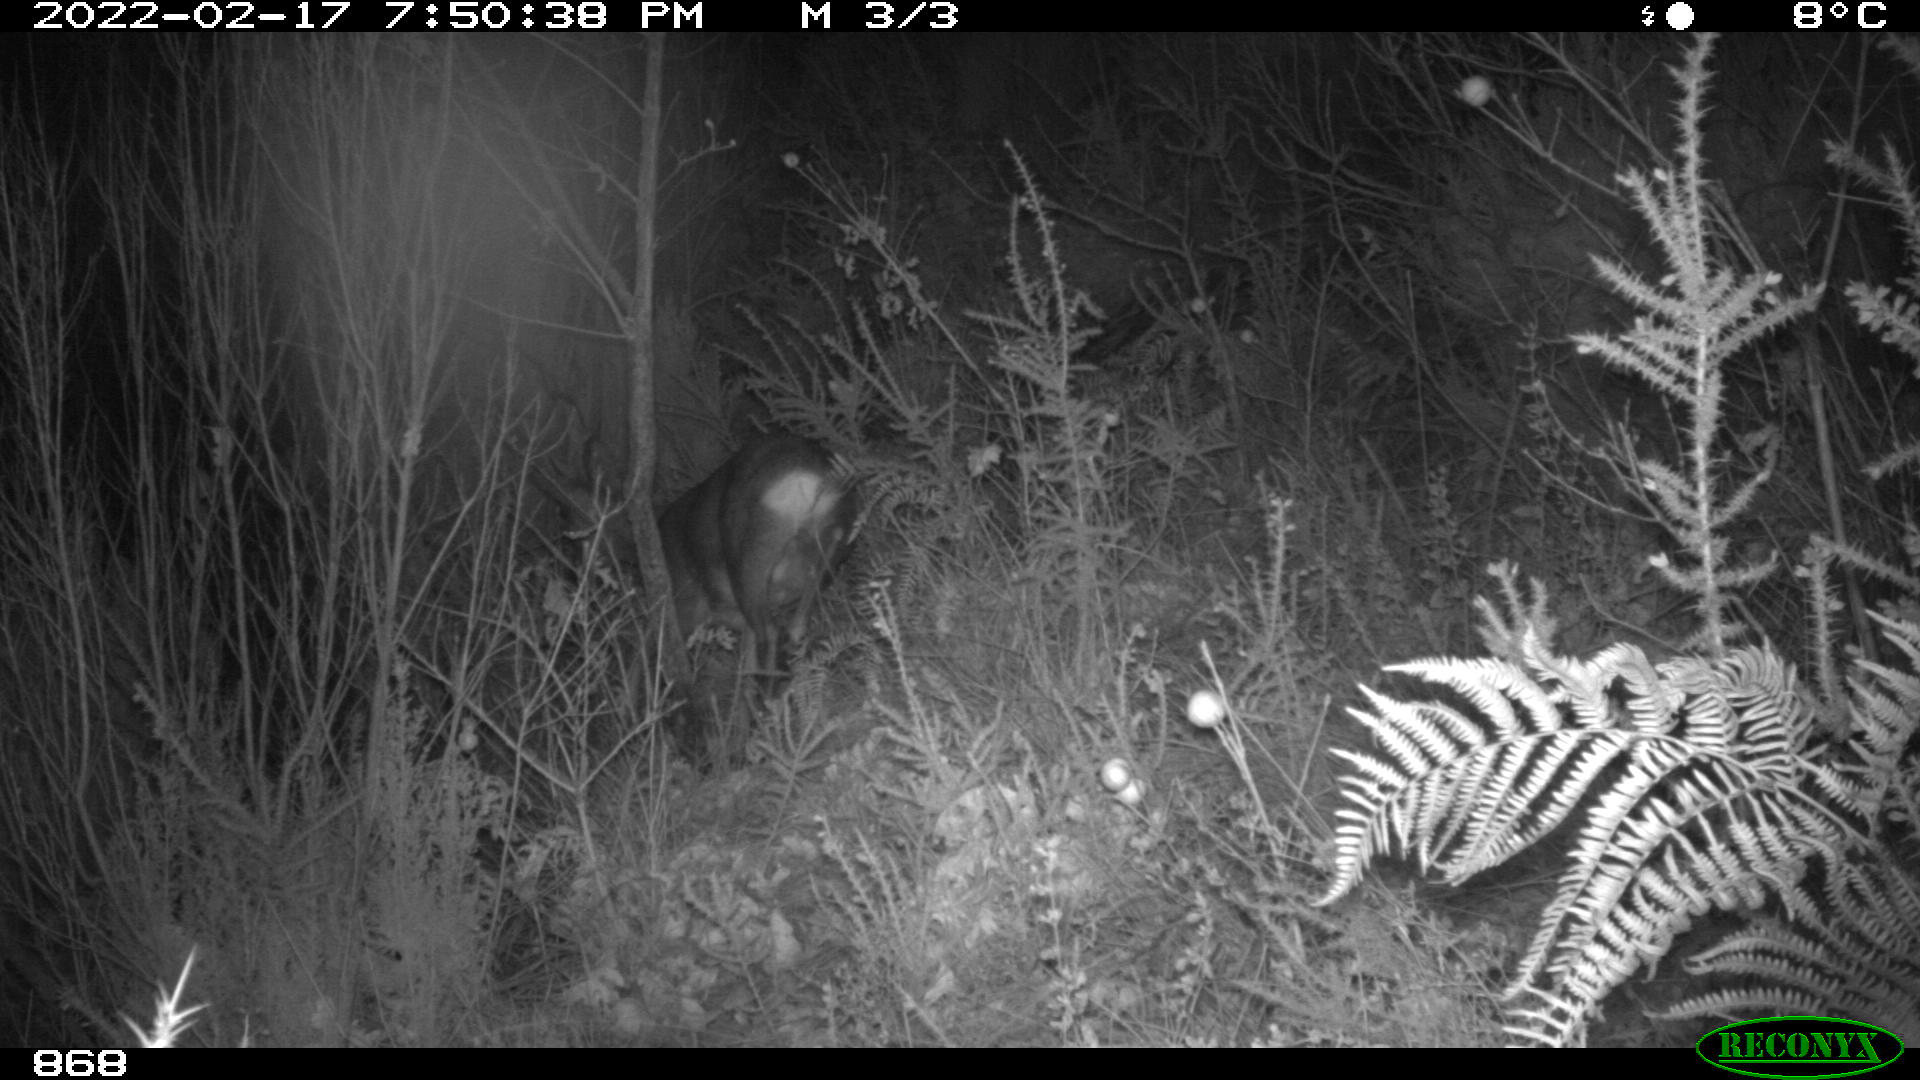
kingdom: Animalia
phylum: Chordata
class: Mammalia
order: Artiodactyla
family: Cervidae
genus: Capreolus
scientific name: Capreolus capreolus
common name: Western roe deer
